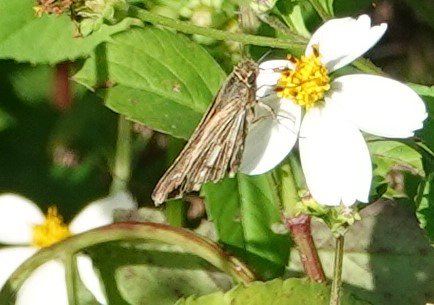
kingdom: Animalia
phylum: Arthropoda
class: Insecta
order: Lepidoptera
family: Hesperiidae
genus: Panoquina
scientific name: Panoquina panoquin
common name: Salt Marsh Skipper
